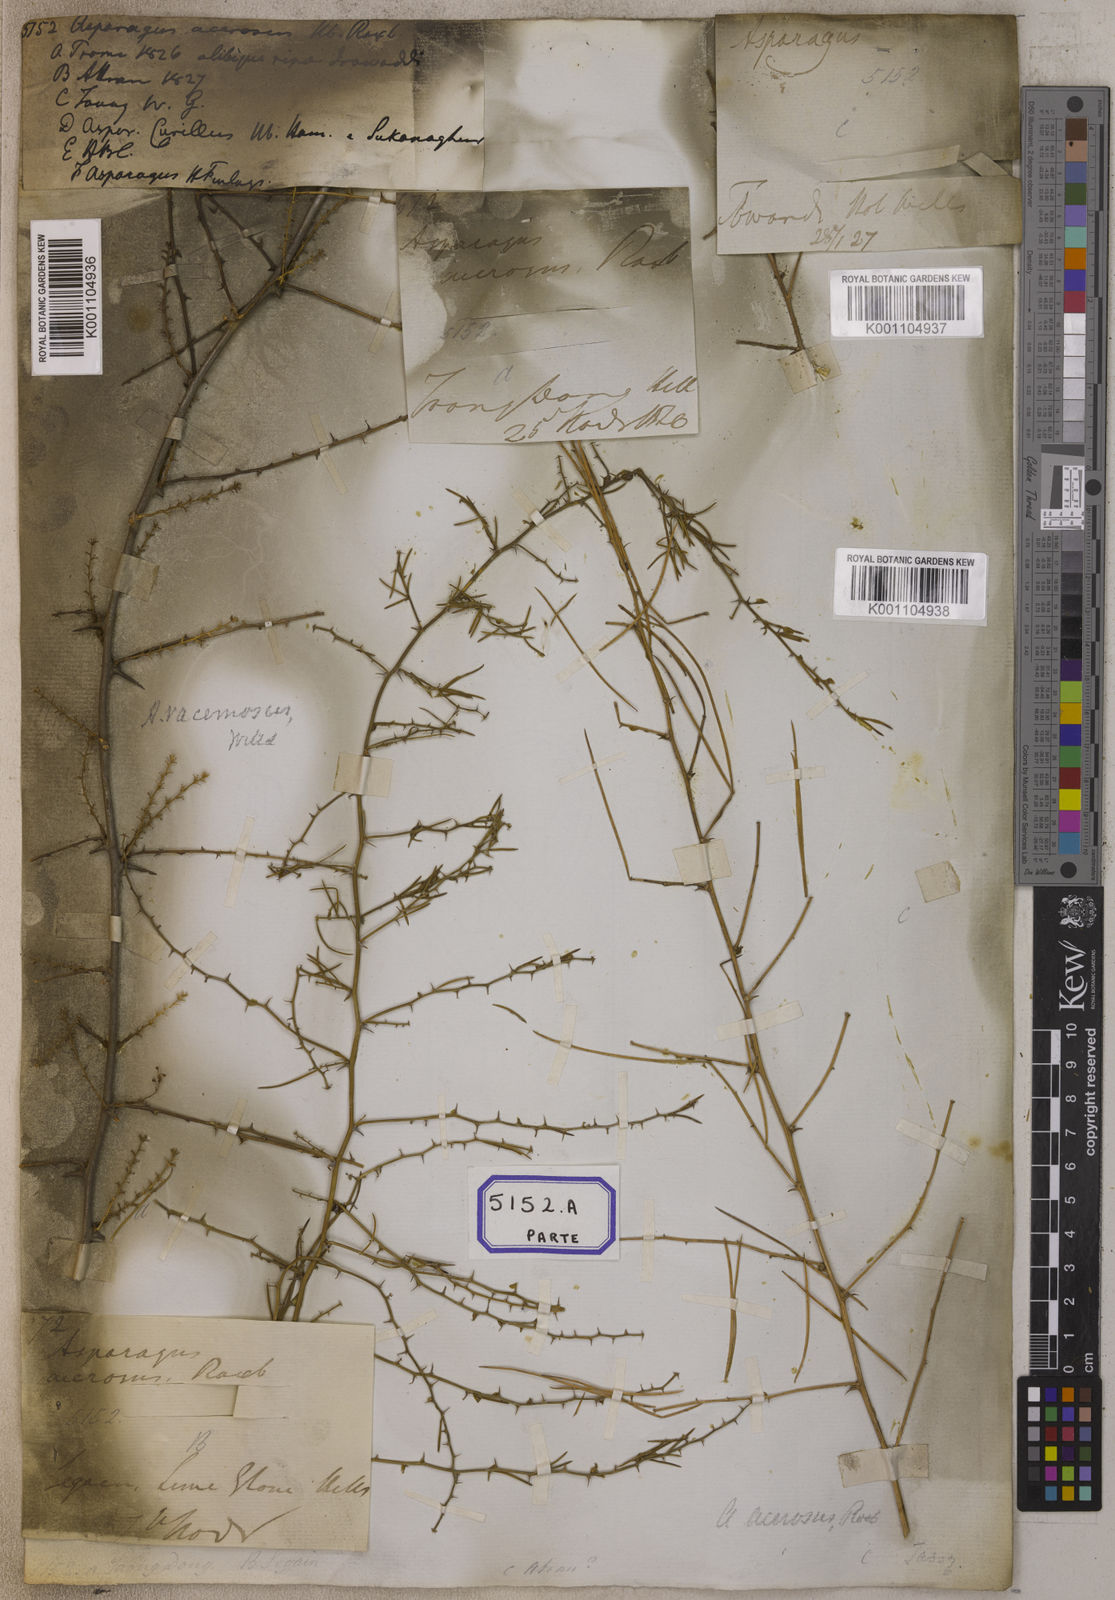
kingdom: Plantae
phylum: Tracheophyta
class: Liliopsida
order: Asparagales
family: Asparagaceae
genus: Asparagus
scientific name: Asparagus racemosus
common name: Asparagus-fern
